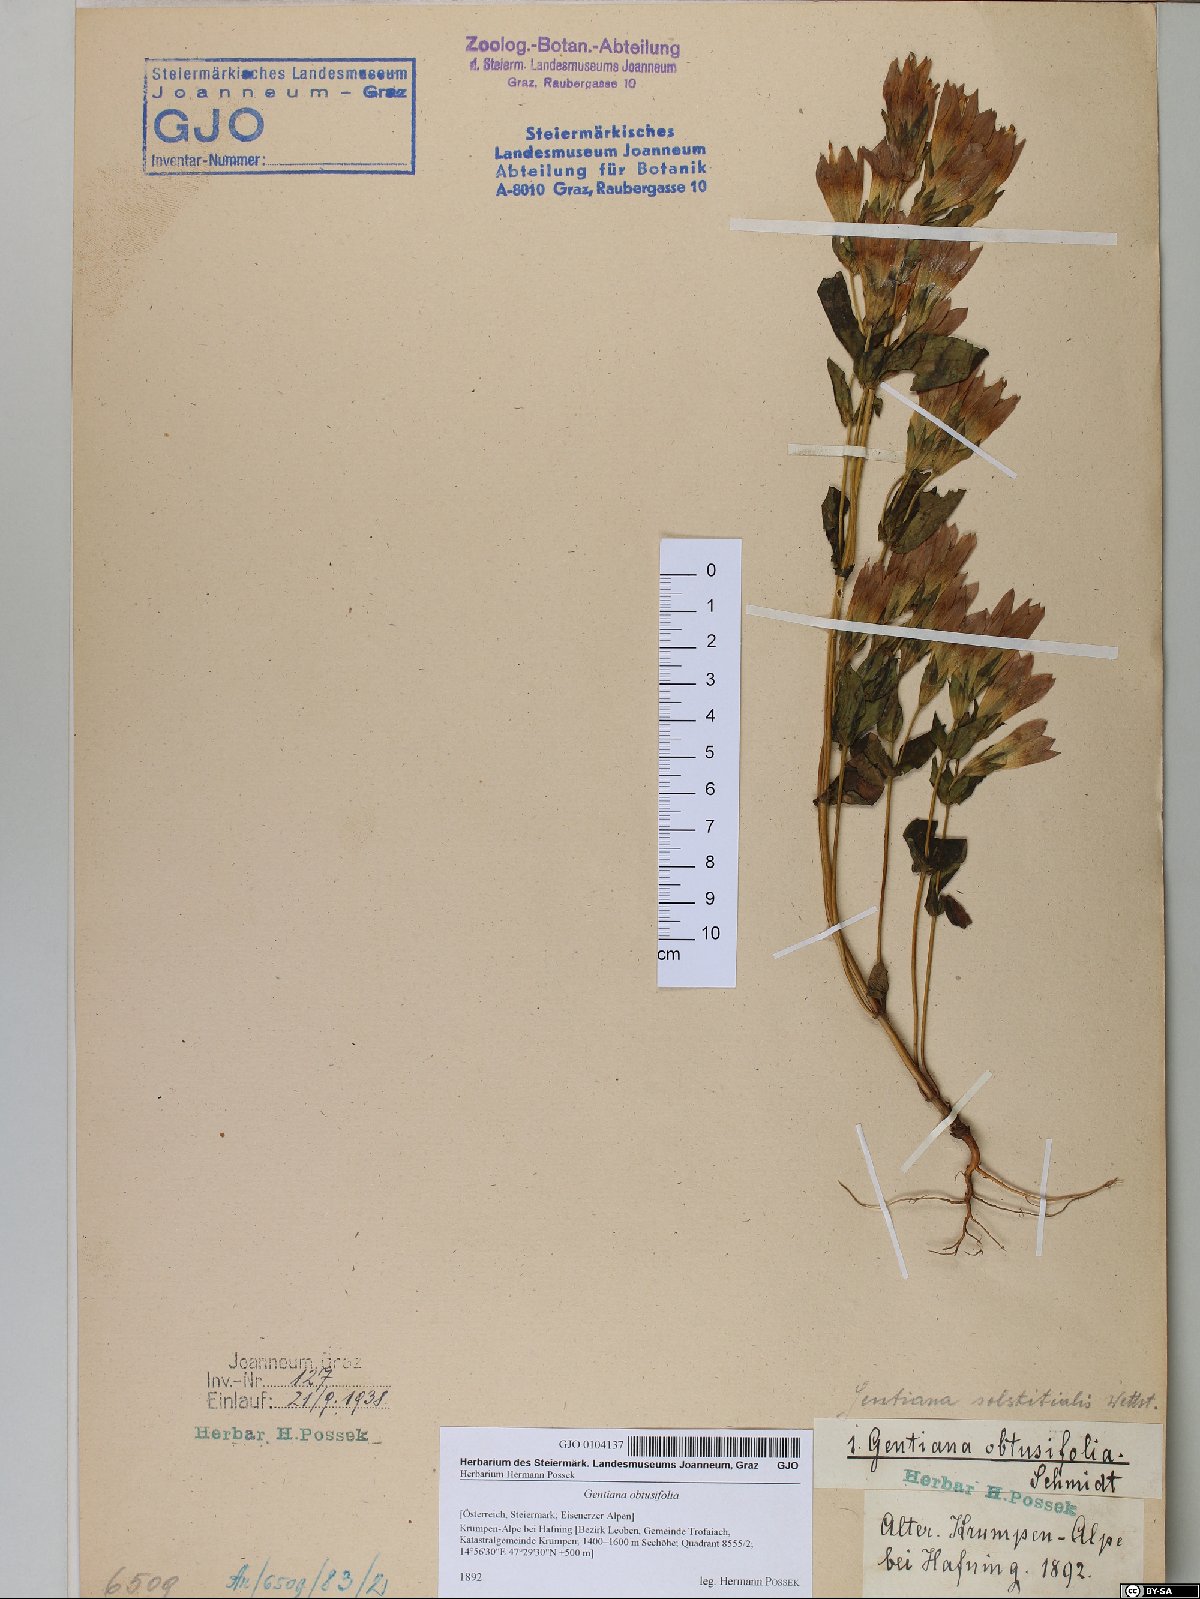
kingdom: Plantae
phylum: Tracheophyta
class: Magnoliopsida
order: Gentianales
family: Gentianaceae
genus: Gentianella
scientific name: Gentianella obtusifolia
